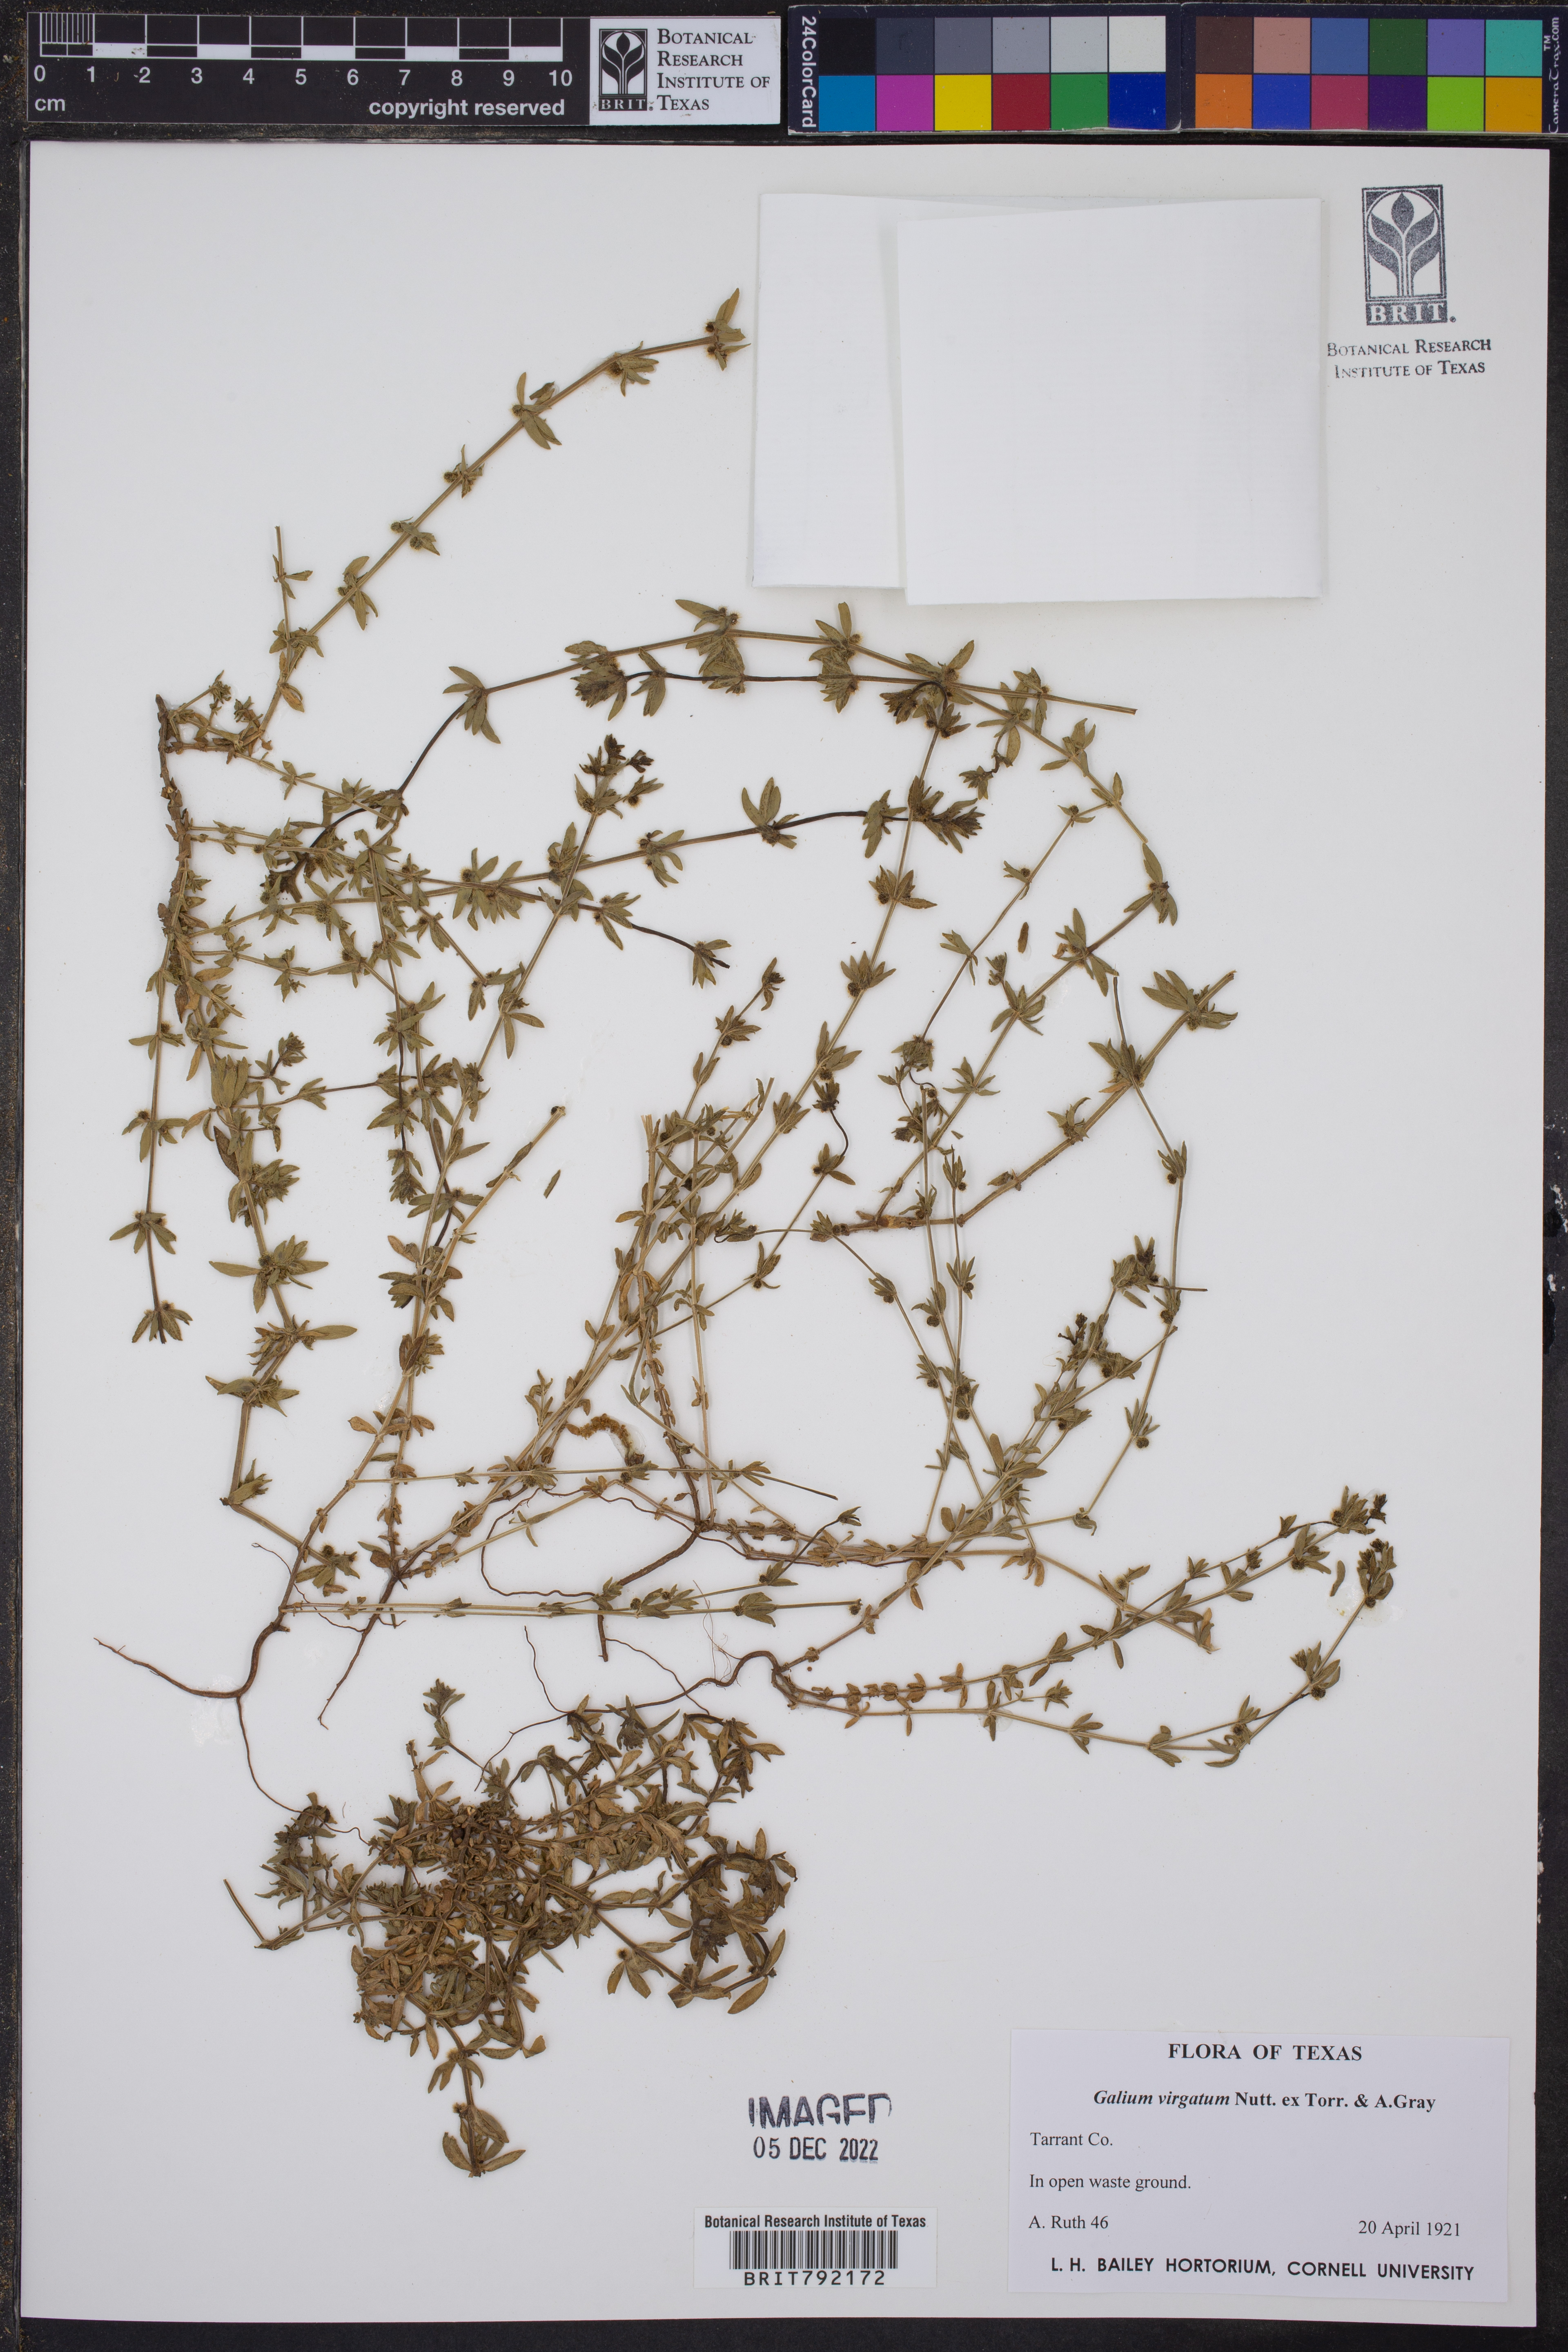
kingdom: Plantae
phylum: Tracheophyta
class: Magnoliopsida
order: Gentianales
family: Rubiaceae
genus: Galium
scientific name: Galium virgatum
